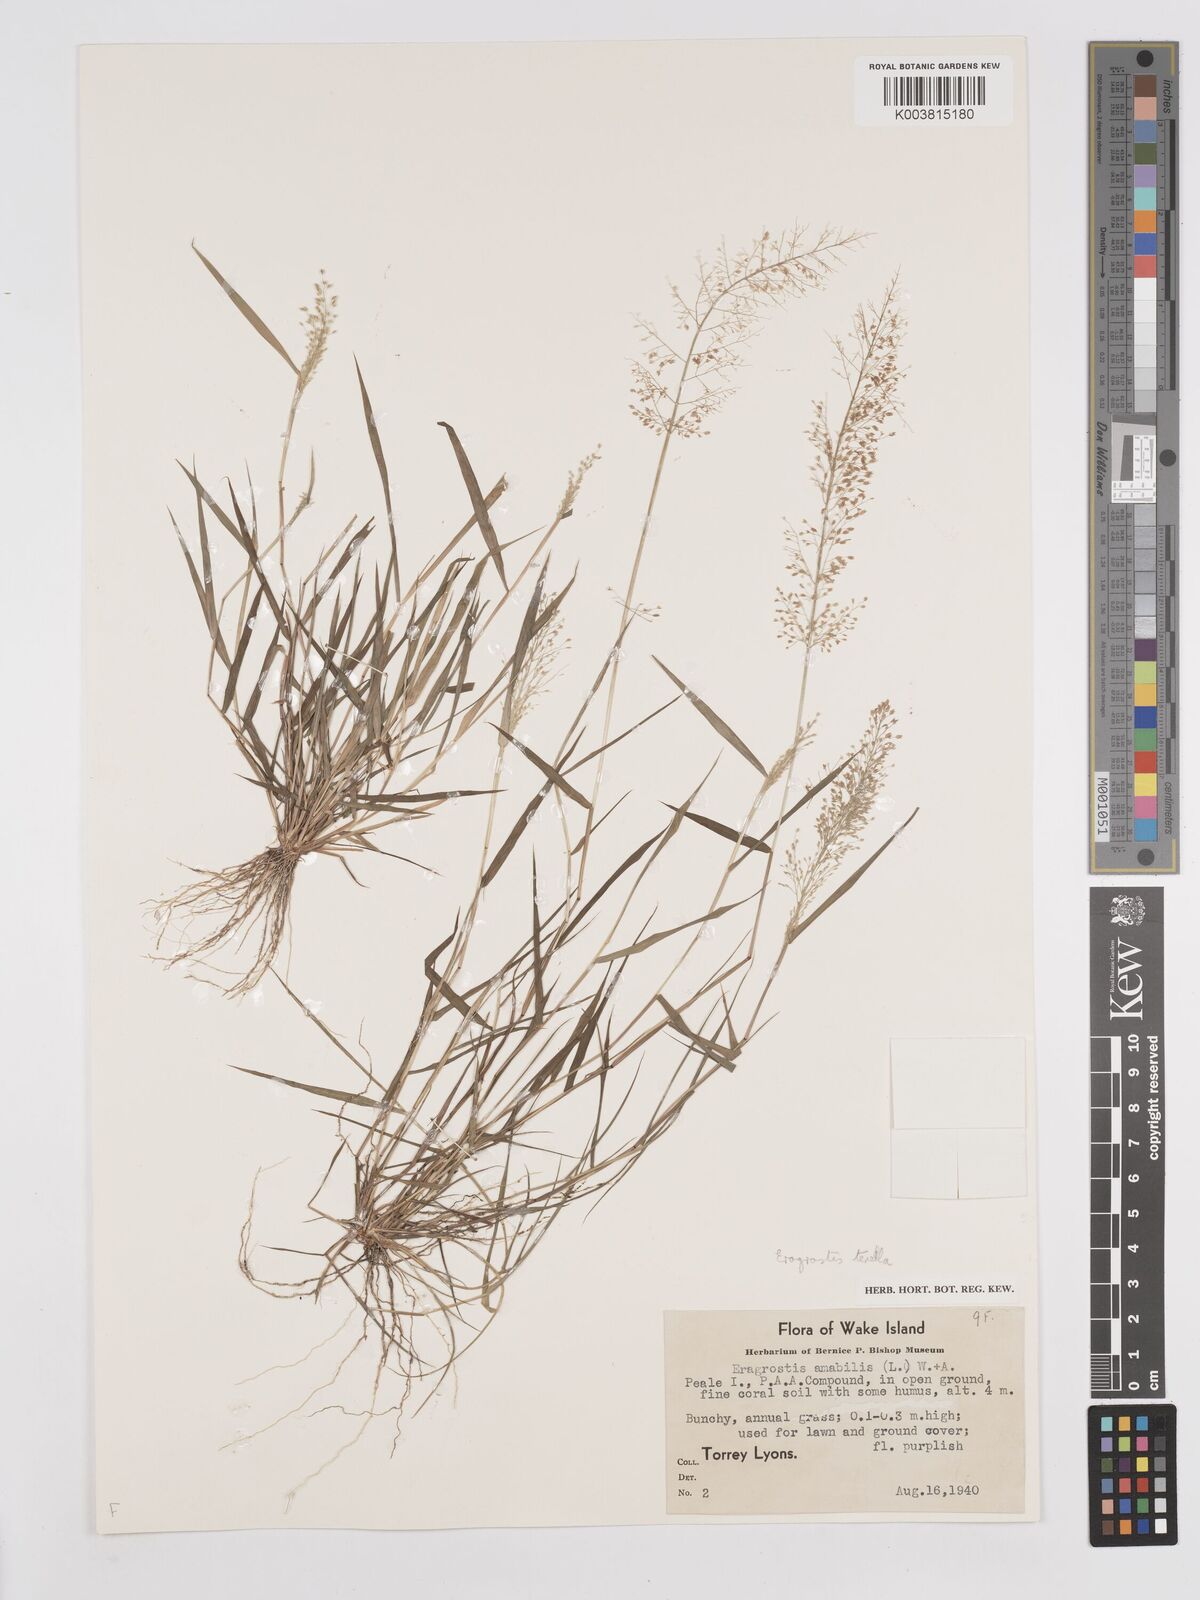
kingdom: Plantae
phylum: Tracheophyta
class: Liliopsida
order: Poales
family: Poaceae
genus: Eragrostis
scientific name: Eragrostis tenella
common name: Japanese lovegrass
